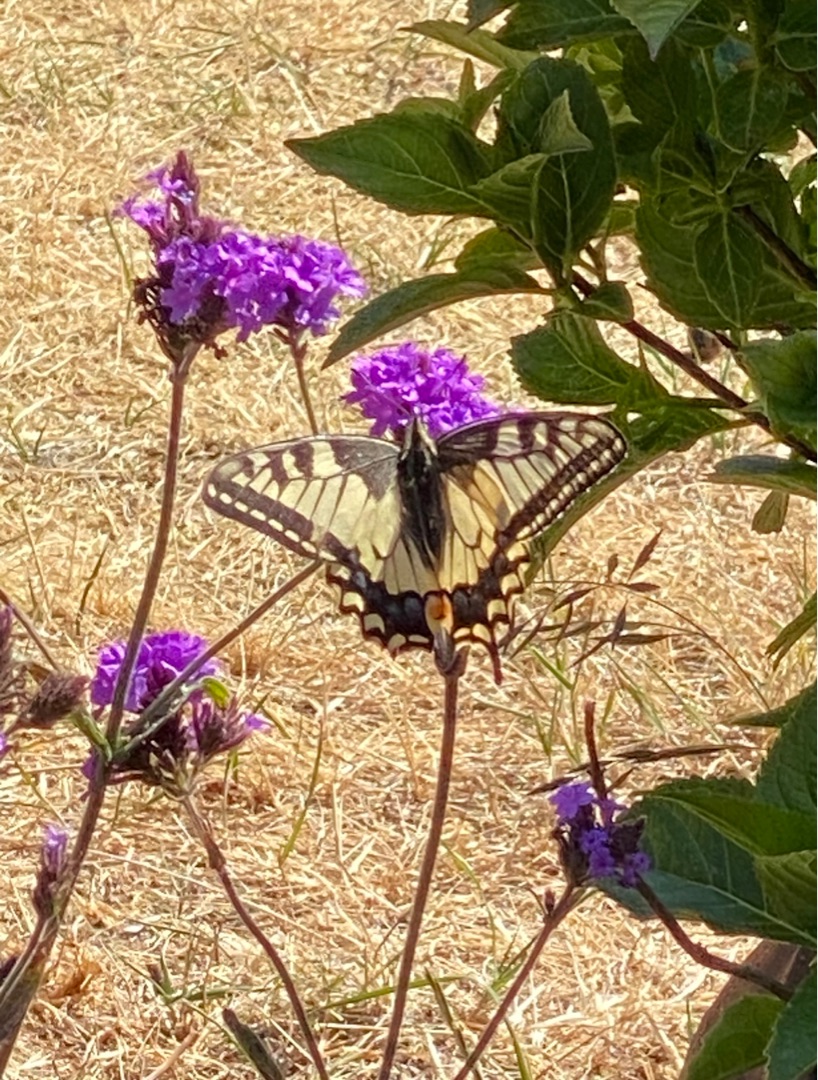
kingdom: Animalia
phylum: Arthropoda
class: Insecta
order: Lepidoptera
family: Papilionidae
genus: Papilio
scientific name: Papilio machaon
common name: Svalehale
